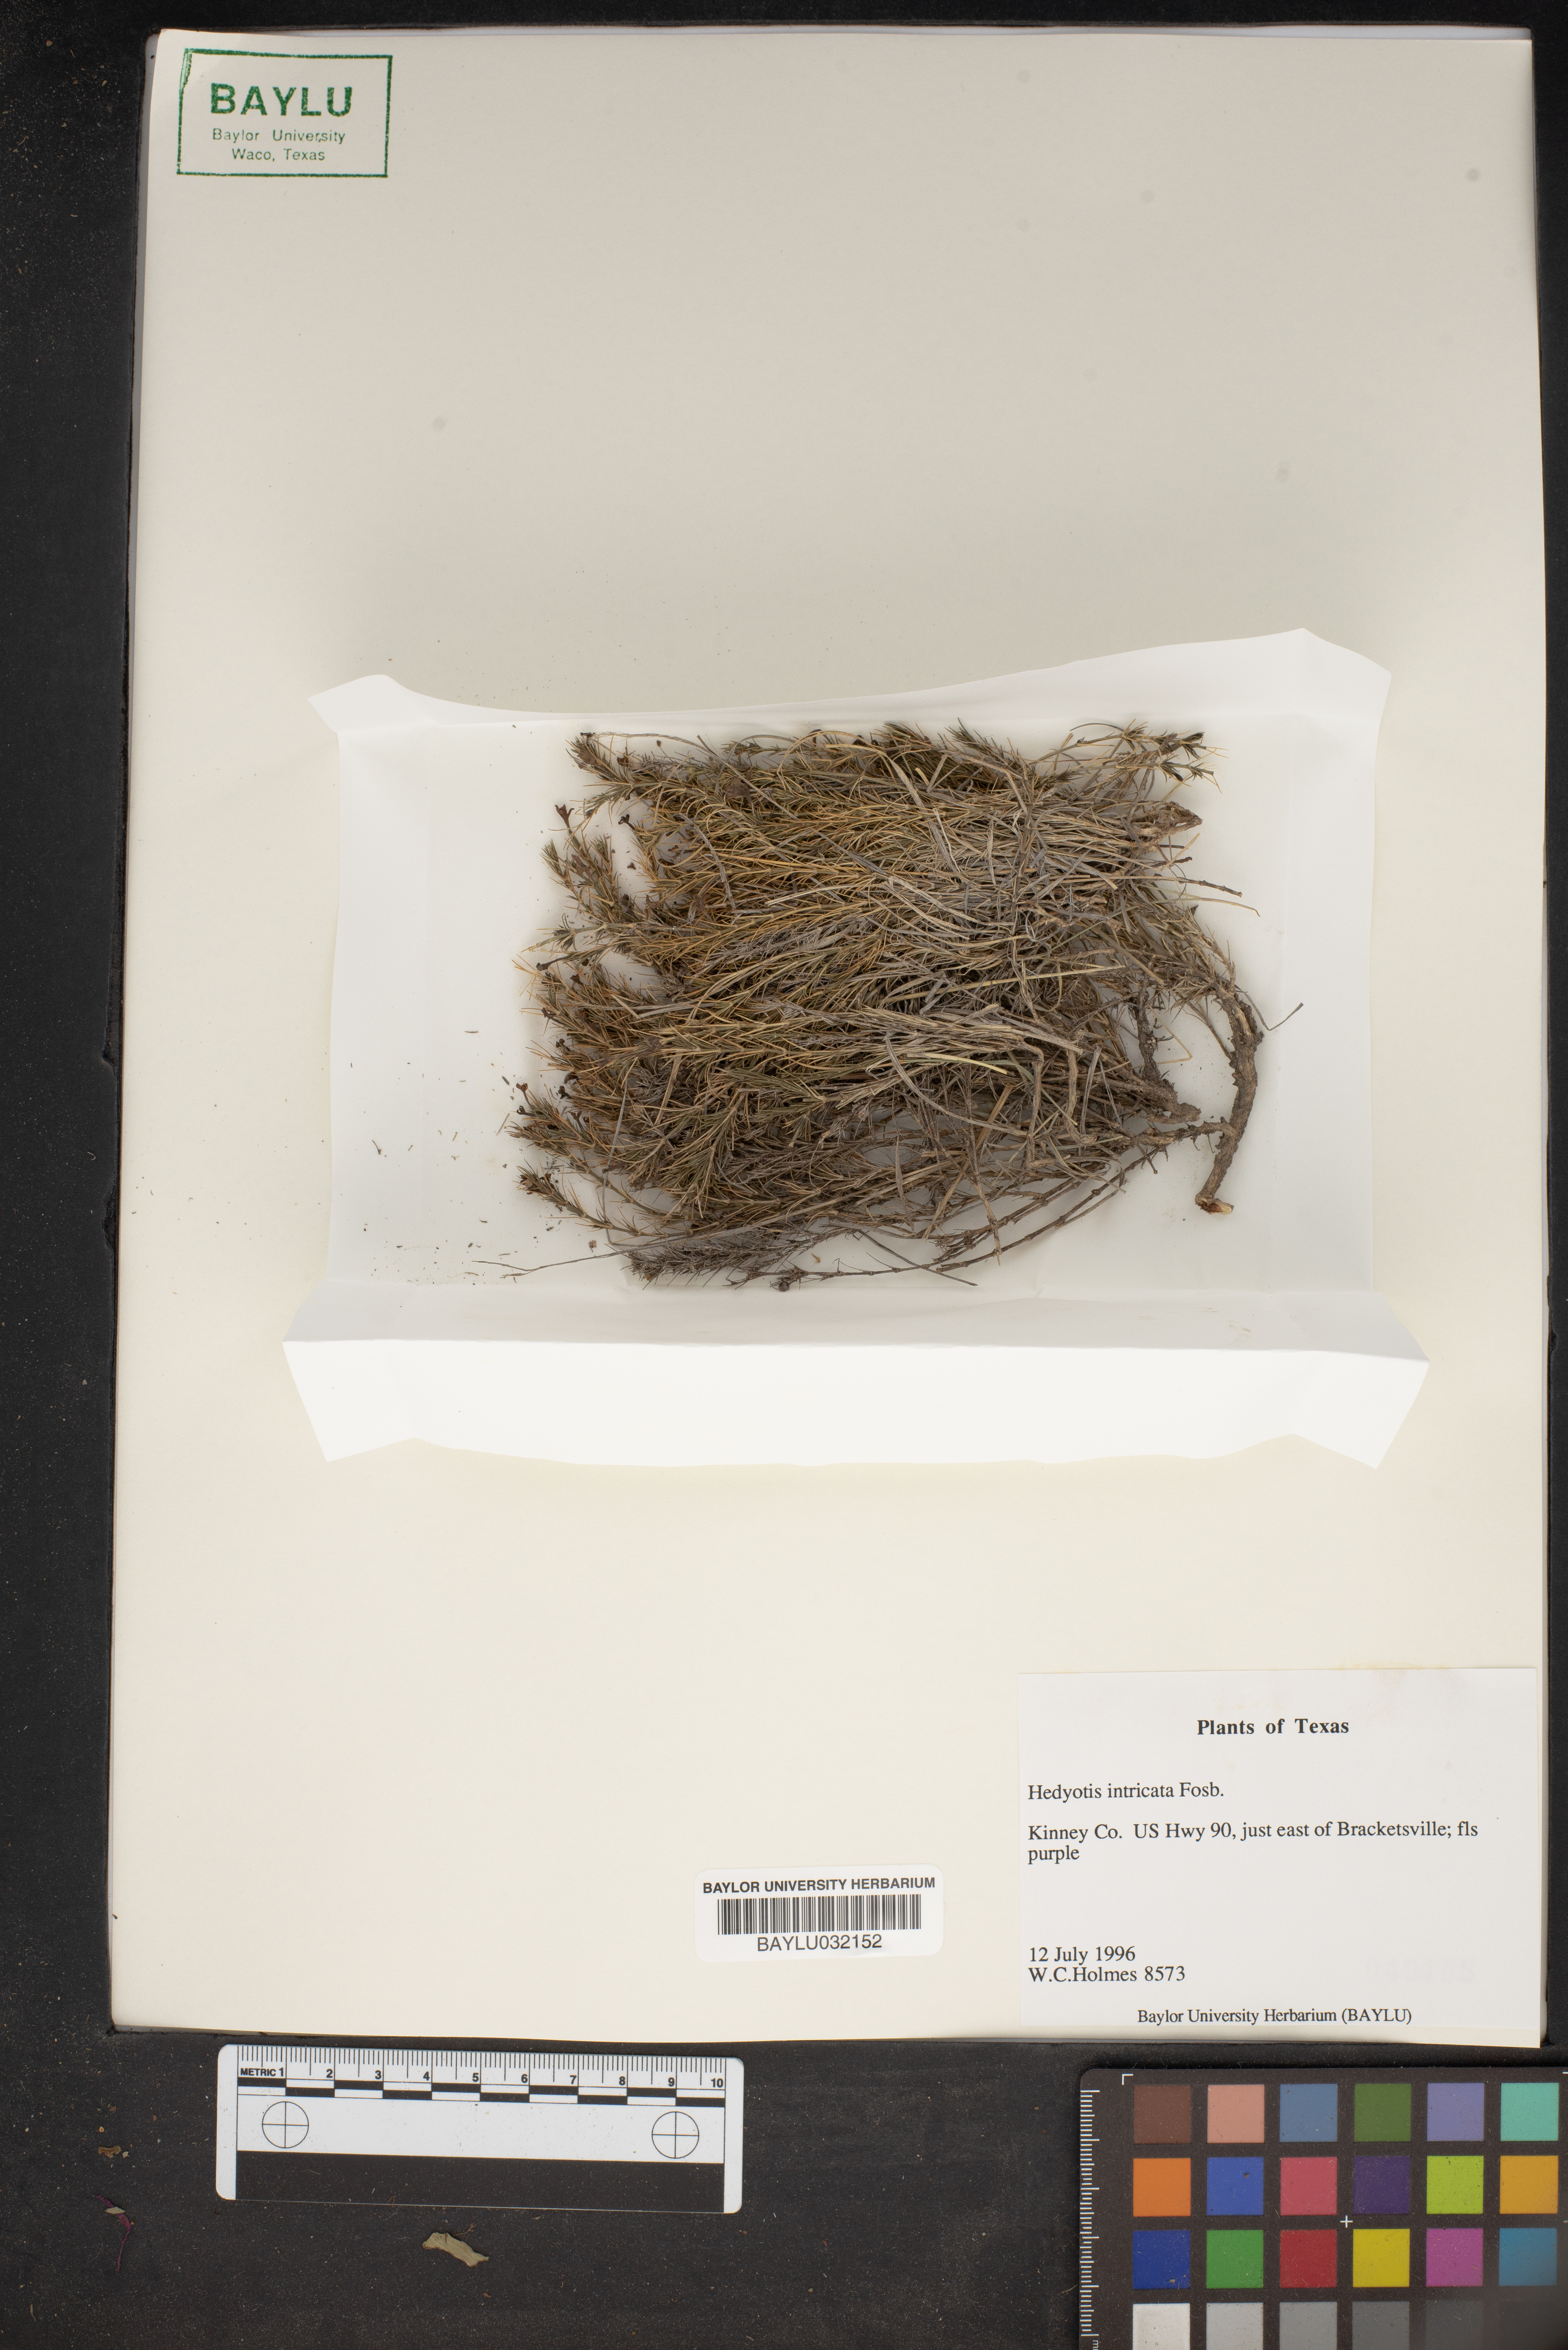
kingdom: Plantae
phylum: Tracheophyta
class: Magnoliopsida
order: Gentianales
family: Rubiaceae
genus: Arcytophyllum
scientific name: Arcytophyllum fasciculatum
